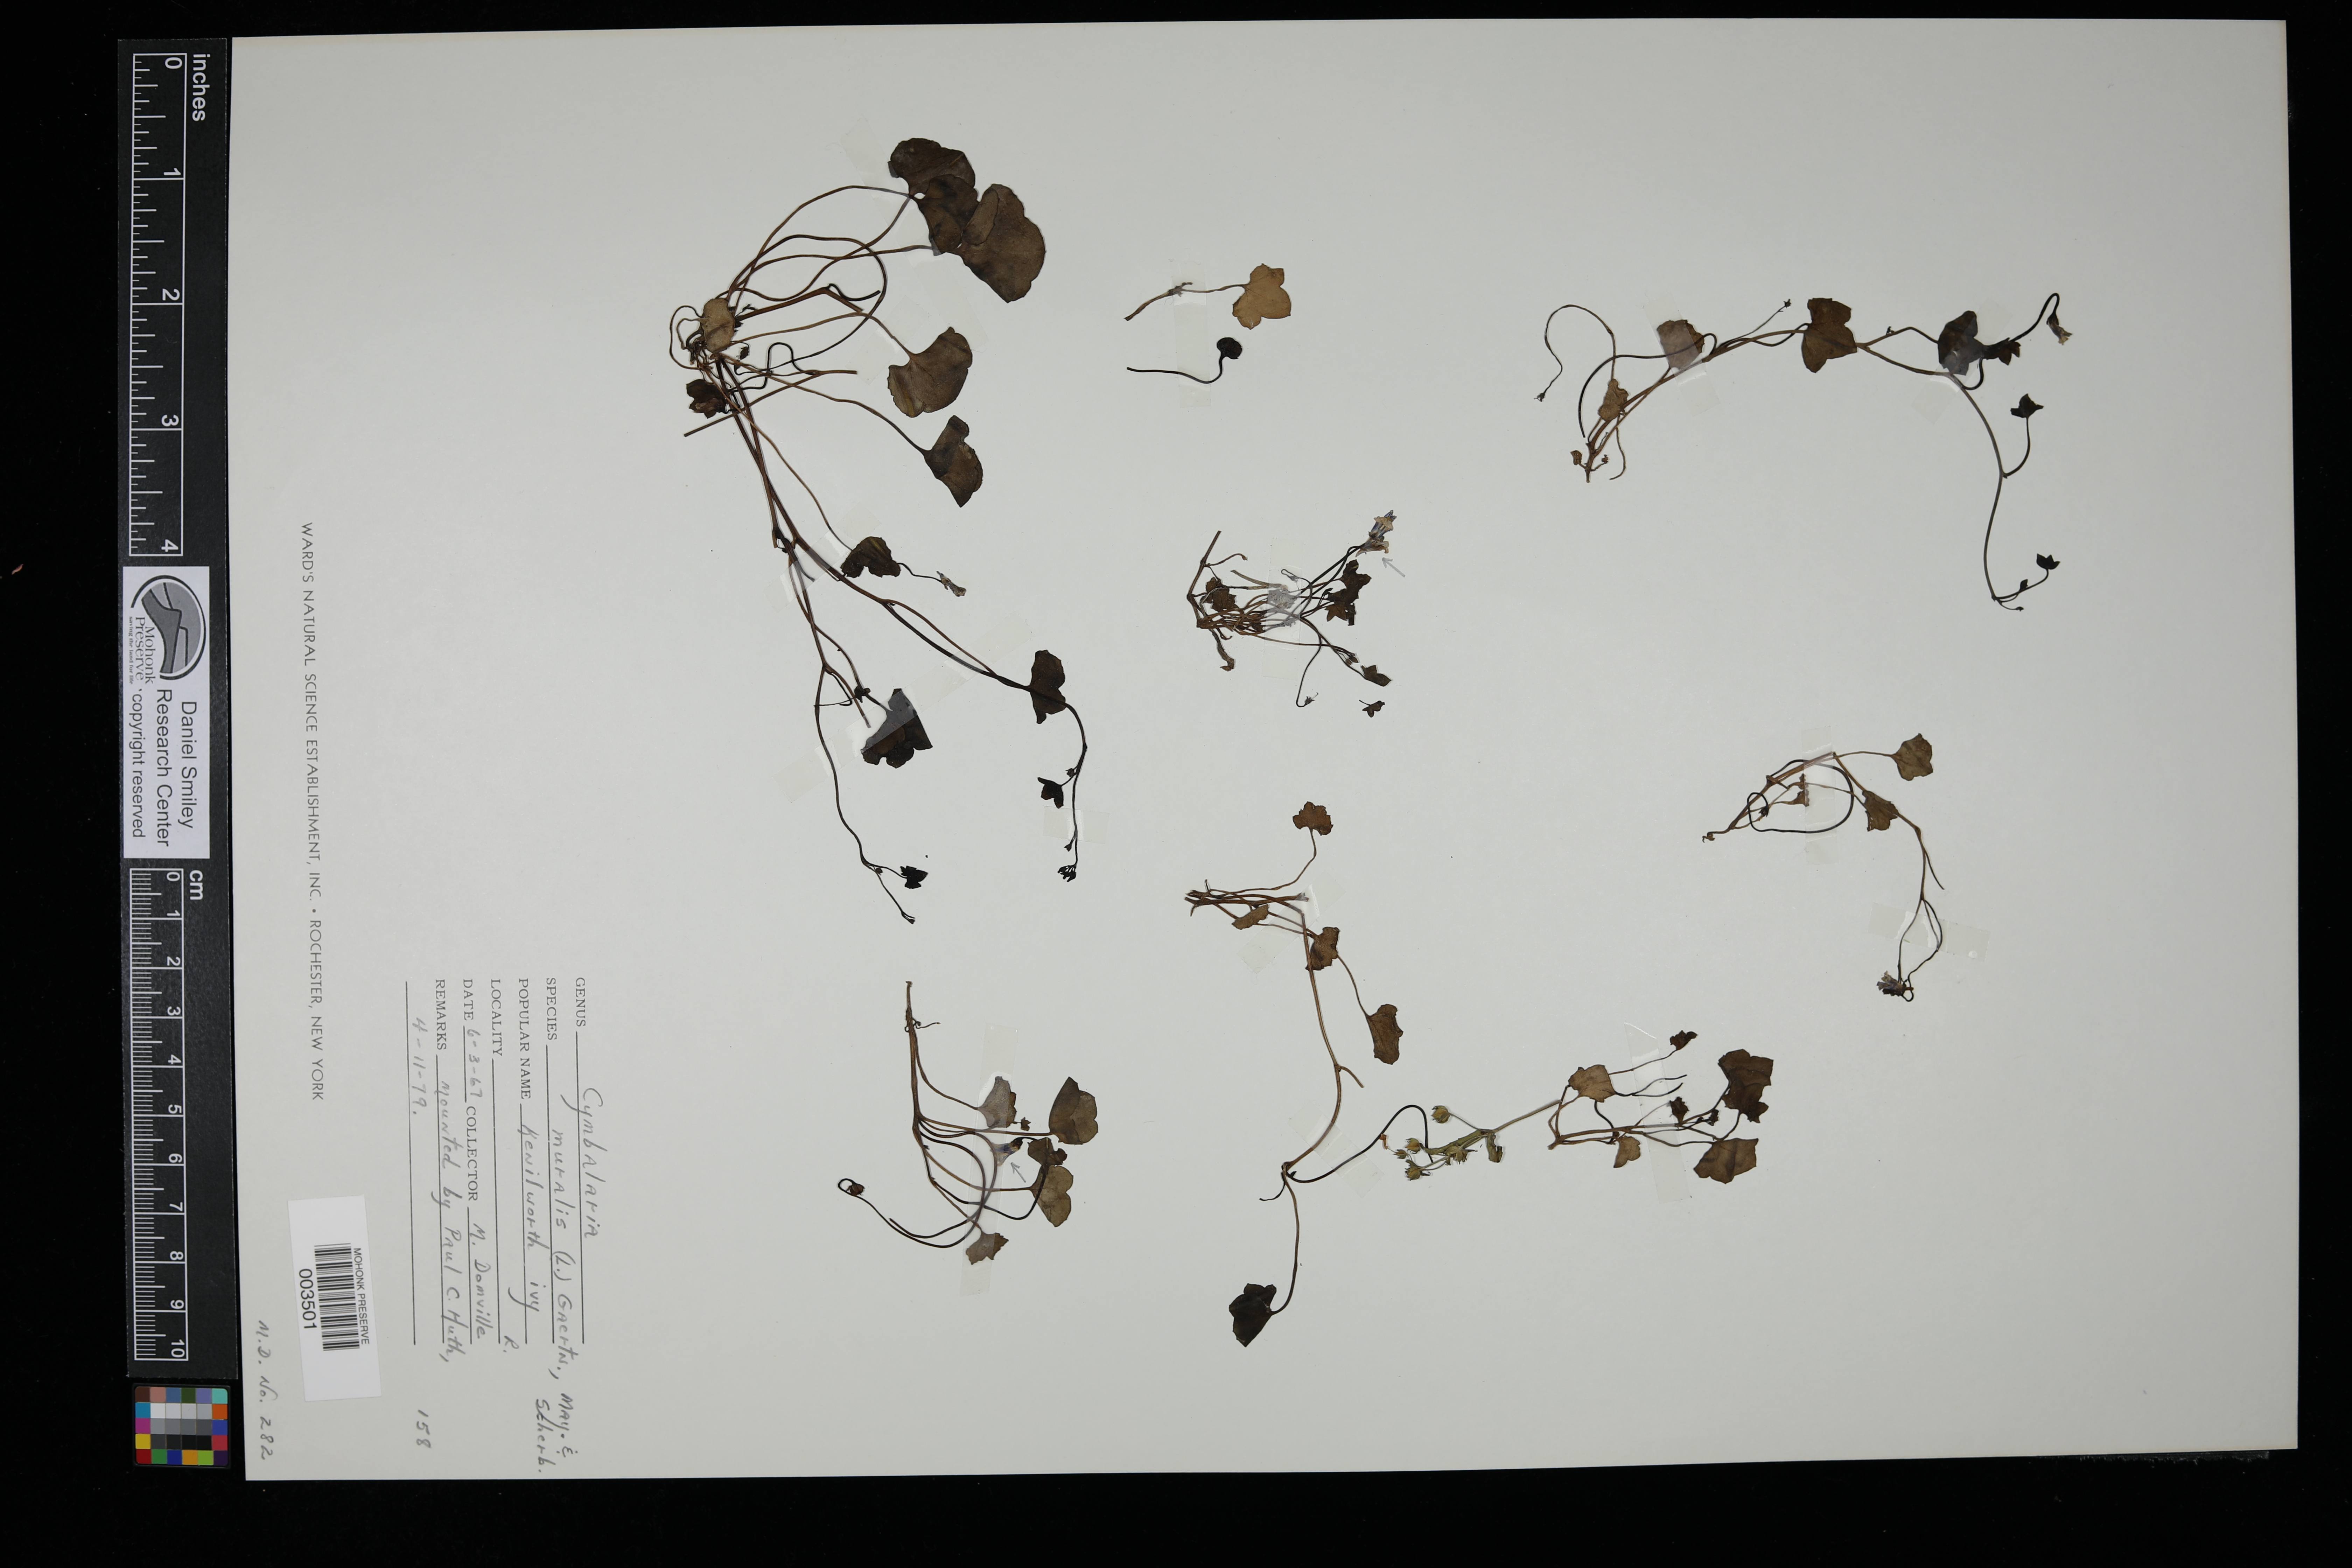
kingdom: Plantae
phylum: Tracheophyta
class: Magnoliopsida
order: Lamiales
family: Plantaginaceae
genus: Cymbalaria
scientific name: Cymbalaria muralis
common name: Ivy-leaved toadflax
